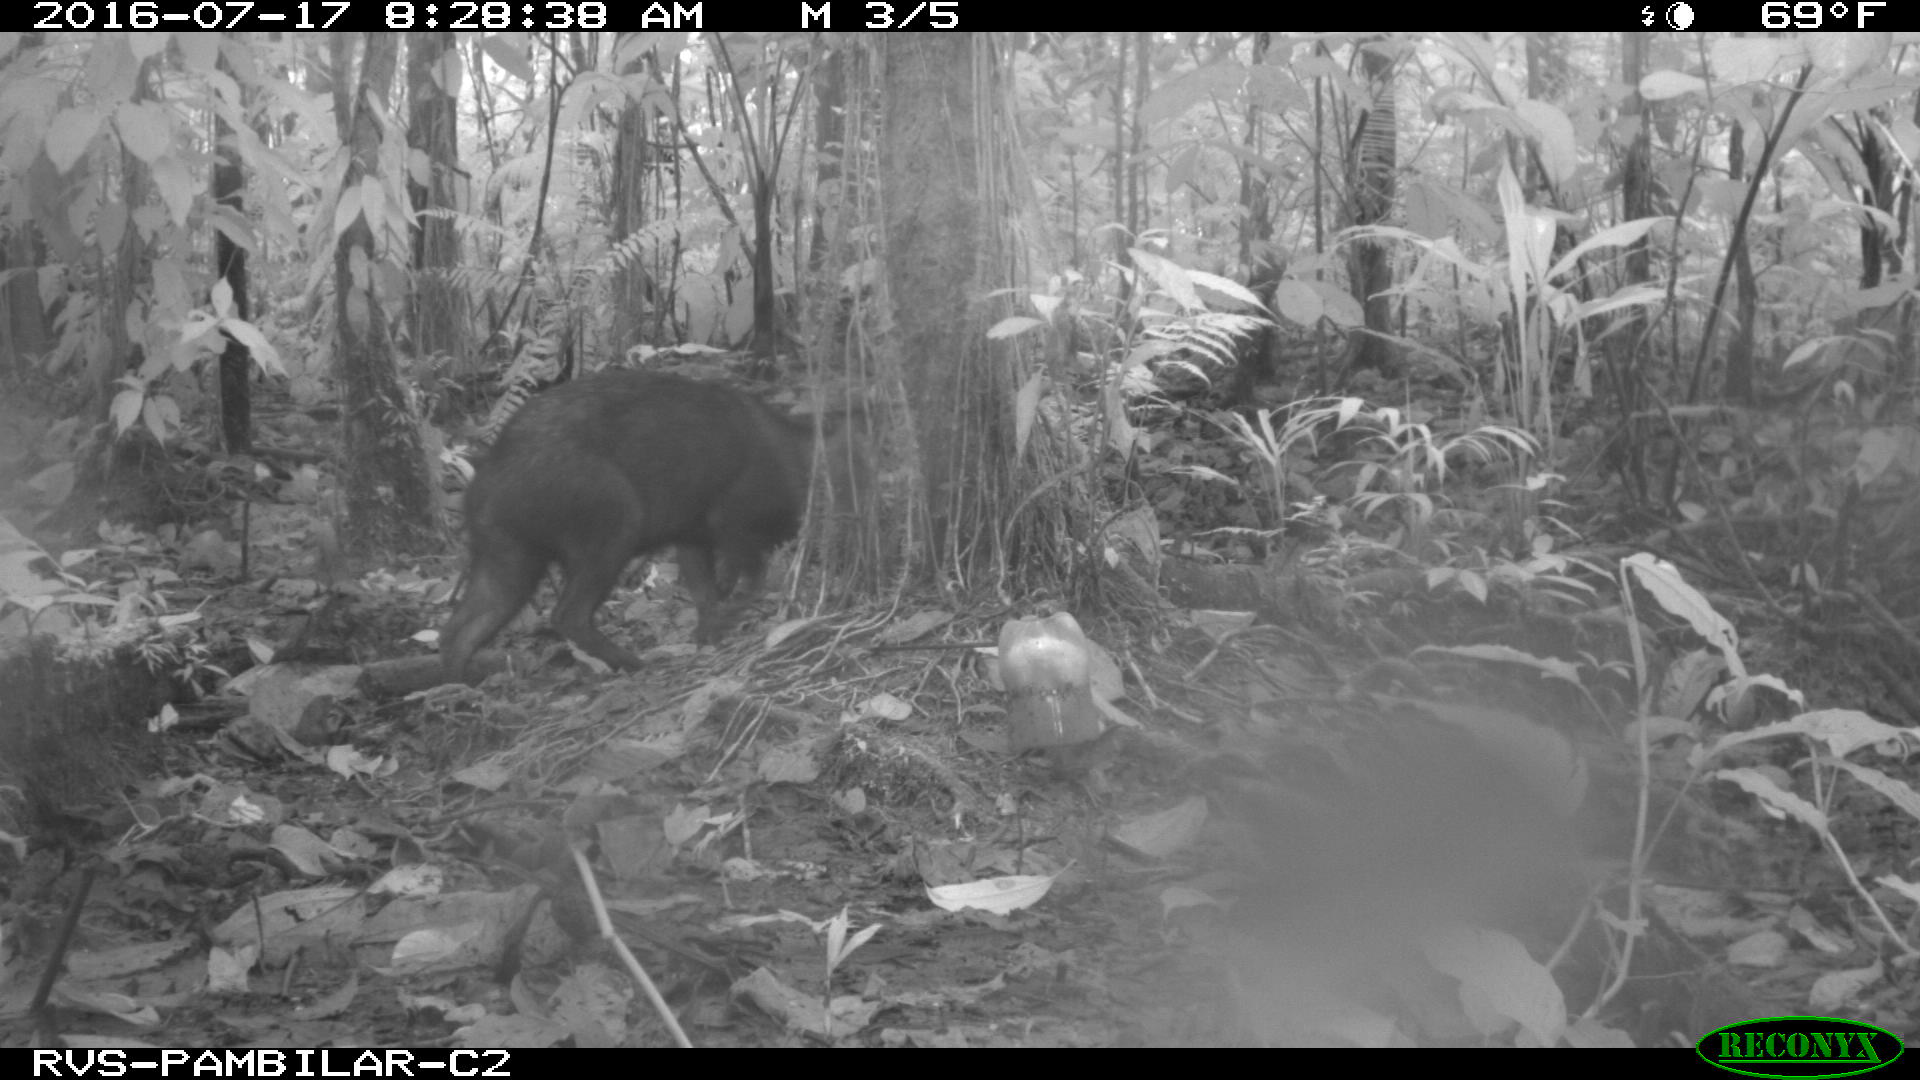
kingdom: Animalia
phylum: Chordata
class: Mammalia
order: Artiodactyla
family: Tayassuidae
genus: Pecari
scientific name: Pecari tajacu
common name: Collared peccary
